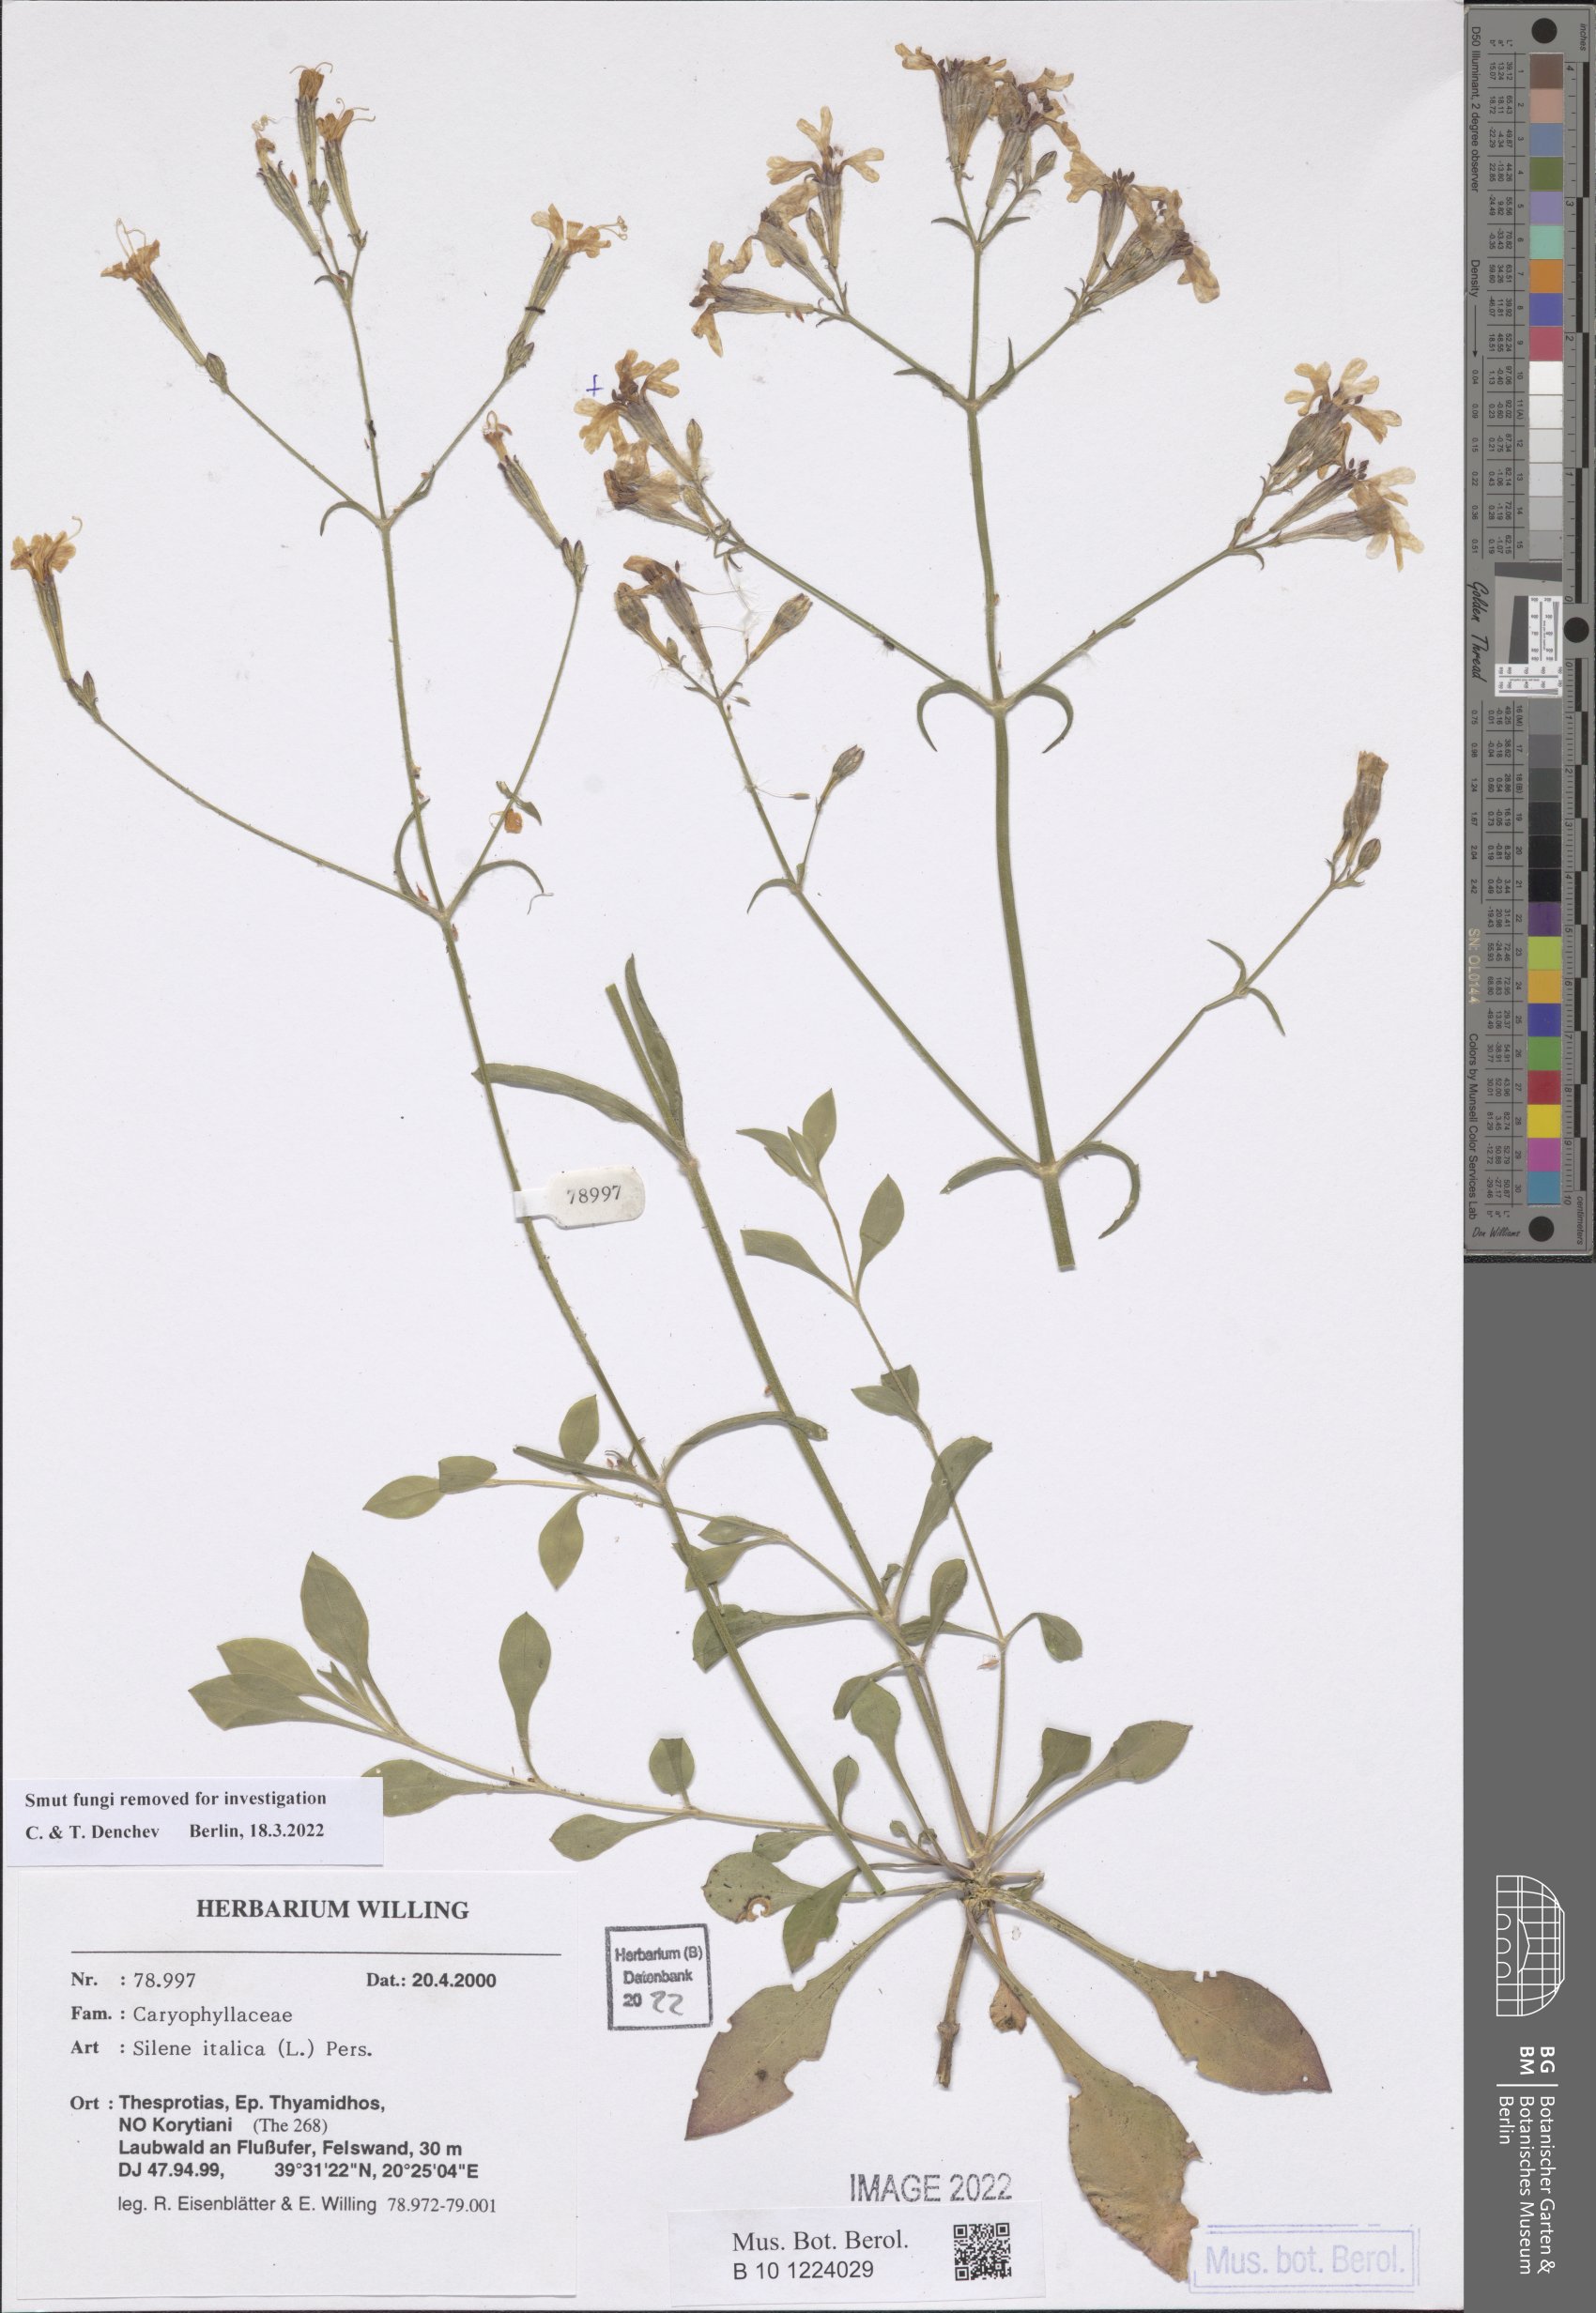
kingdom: Plantae
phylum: Tracheophyta
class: Magnoliopsida
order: Caryophyllales
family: Caryophyllaceae
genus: Silene
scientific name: Silene italica
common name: Italian catchfly
